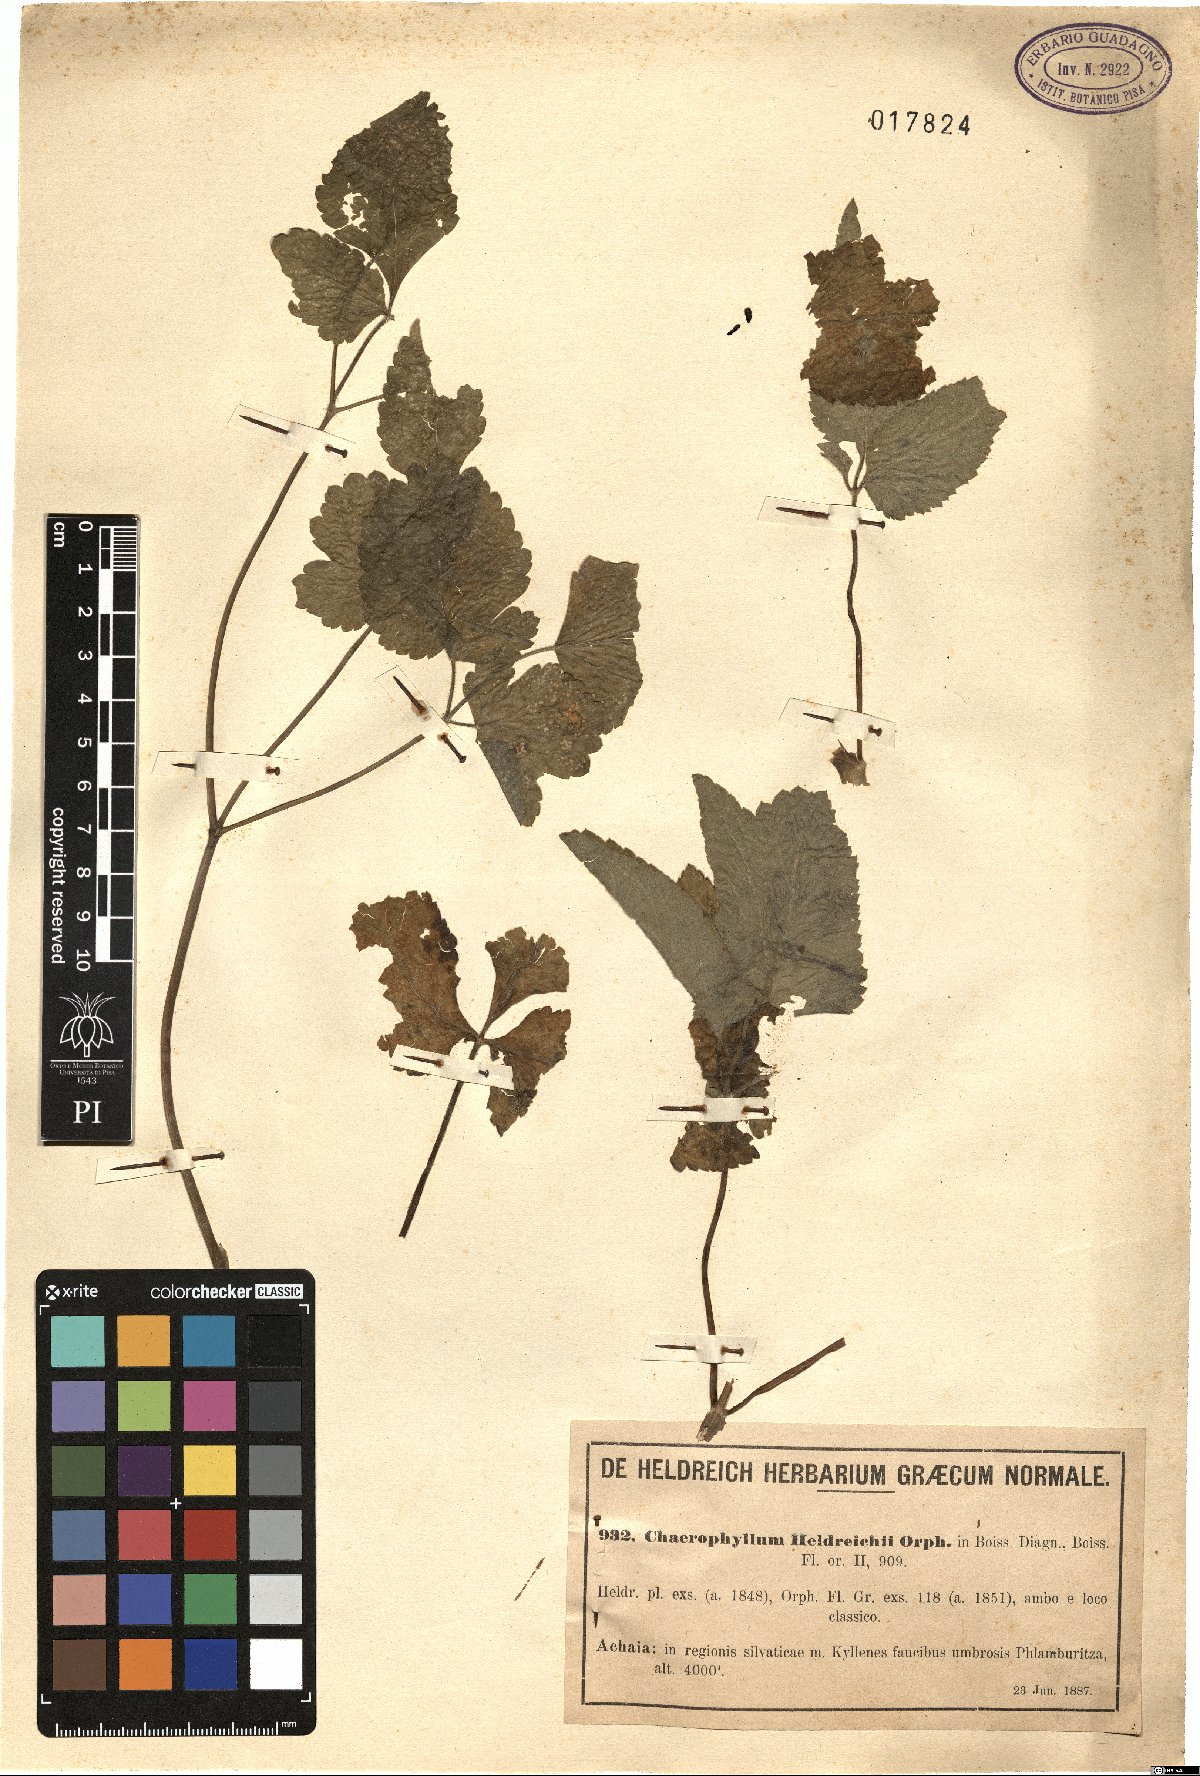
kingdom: Plantae
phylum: Tracheophyta
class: Magnoliopsida
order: Apiales
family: Apiaceae
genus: Chaerophyllum
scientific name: Chaerophyllum heldreichii
